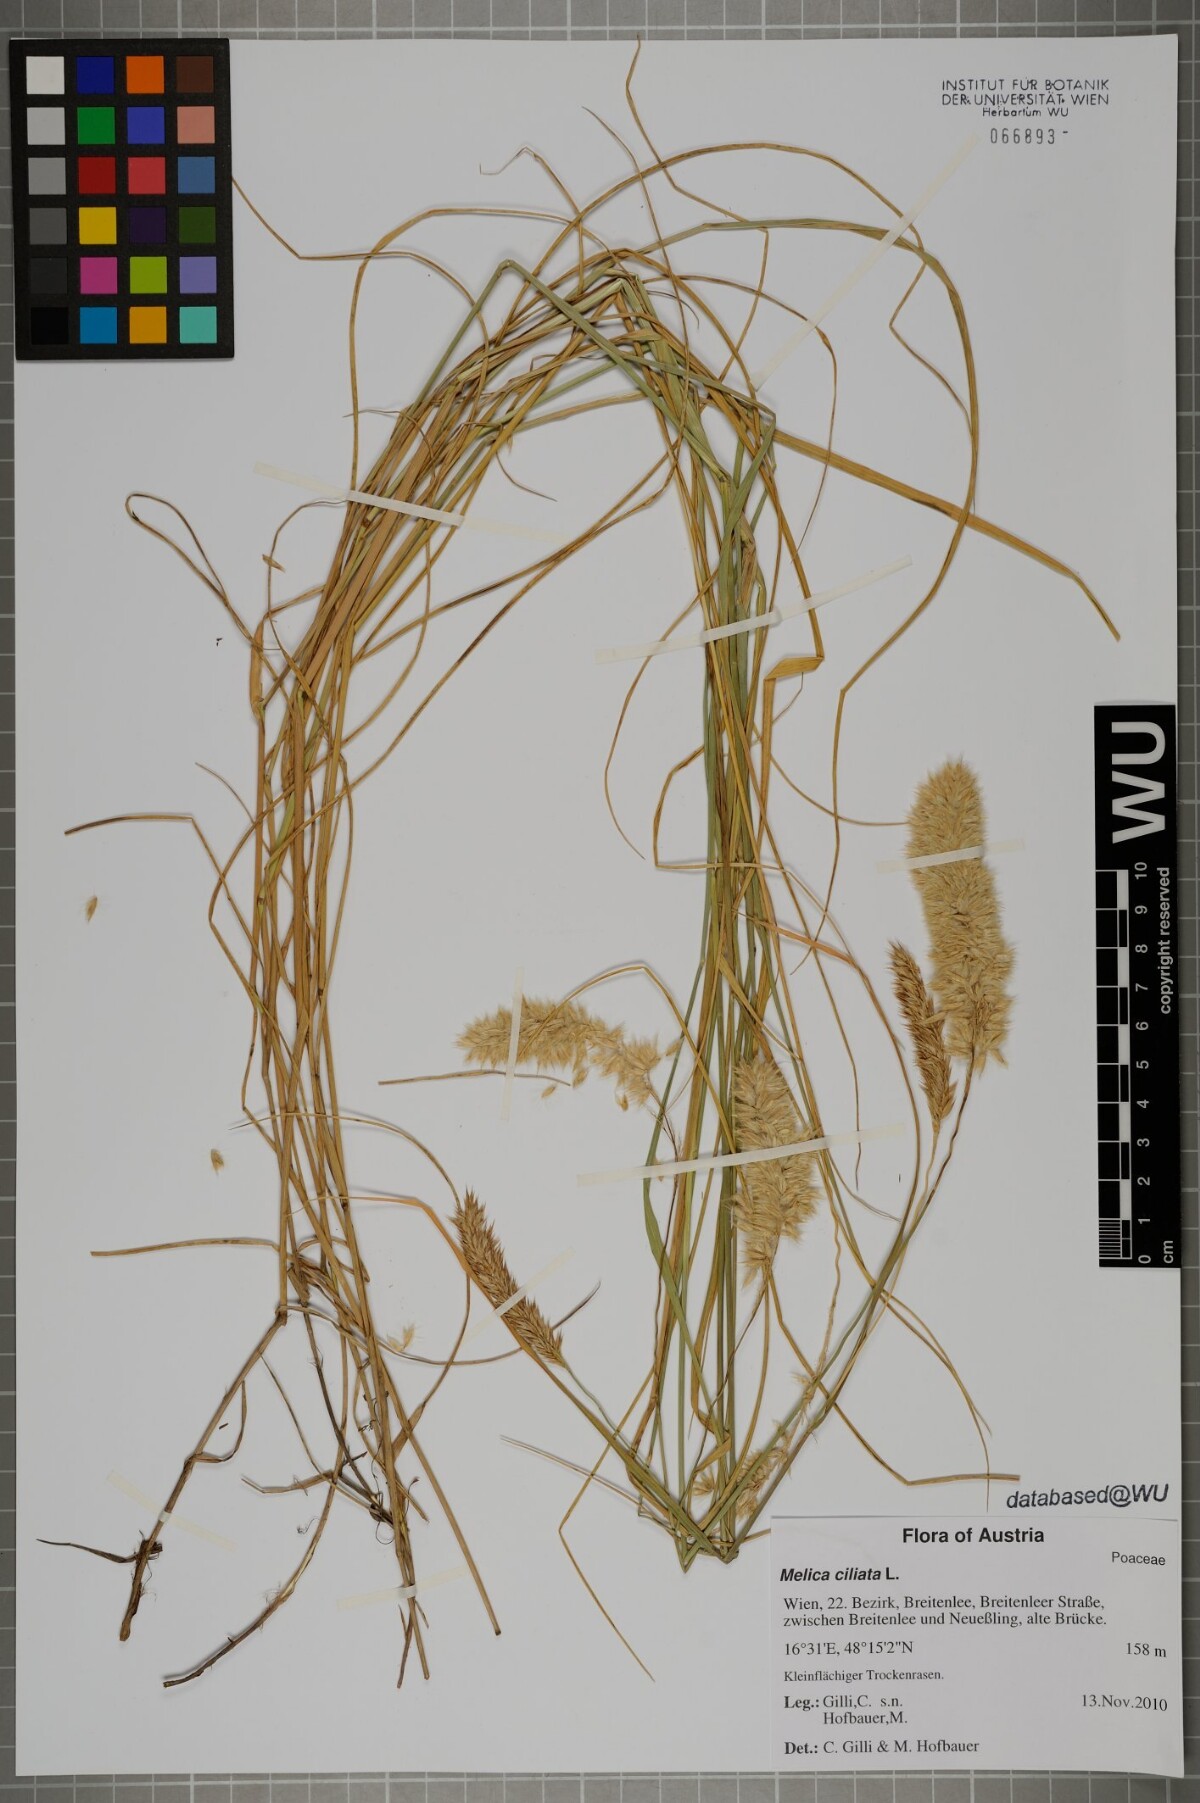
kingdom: Plantae
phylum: Tracheophyta
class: Liliopsida
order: Poales
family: Poaceae
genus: Melica
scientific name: Melica ciliata
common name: Hairy melicgrass
